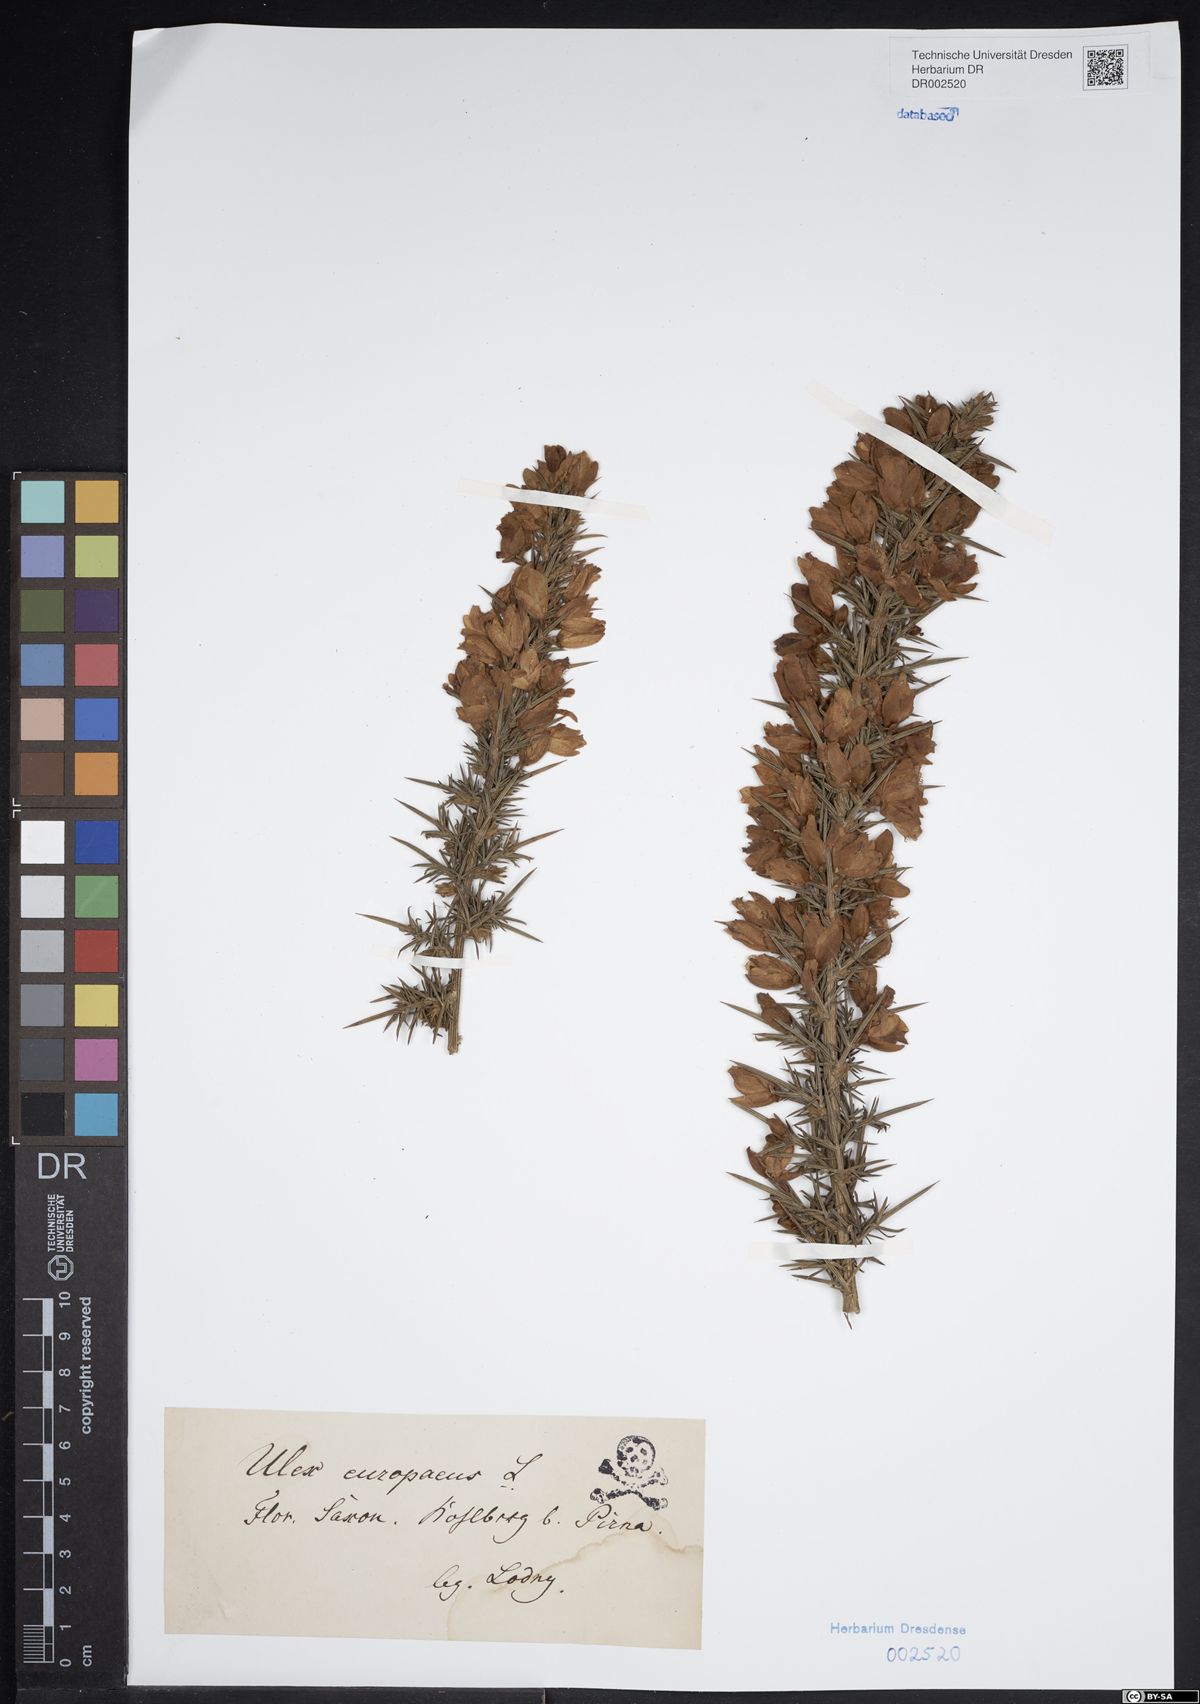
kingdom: Plantae
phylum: Tracheophyta
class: Magnoliopsida
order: Fabales
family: Fabaceae
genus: Ulex
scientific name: Ulex europaeus
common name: Common gorse
